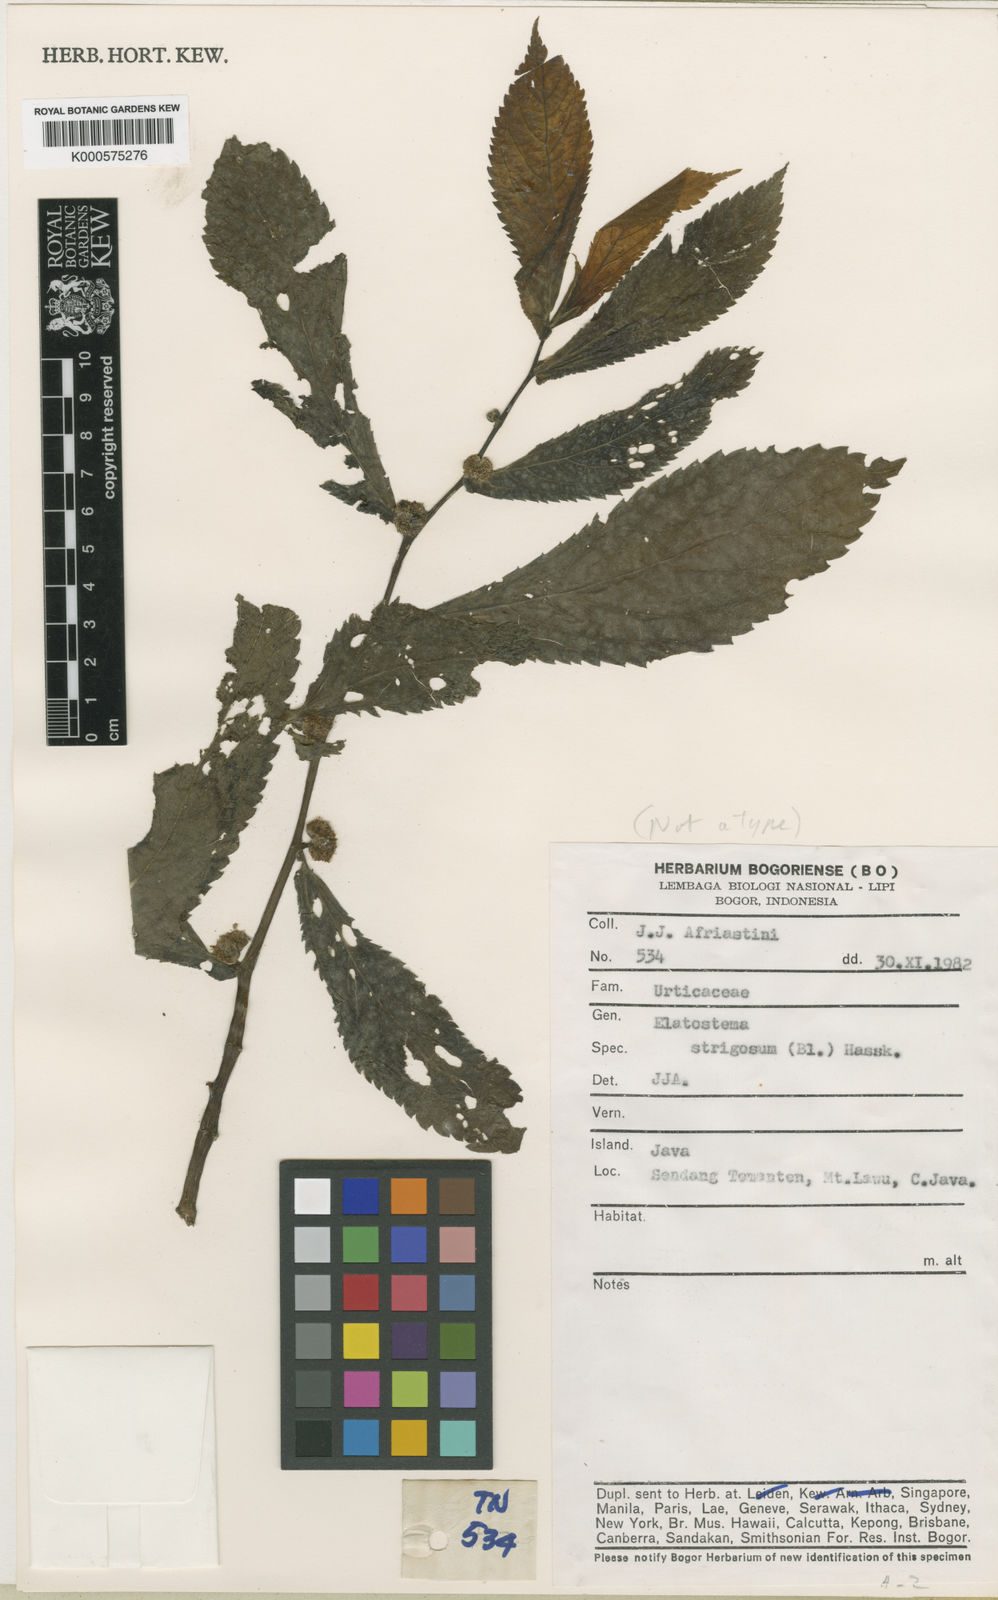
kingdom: Plantae
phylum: Tracheophyta
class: Magnoliopsida
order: Rosales
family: Urticaceae
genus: Elatostema
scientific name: Elatostema strigosum
